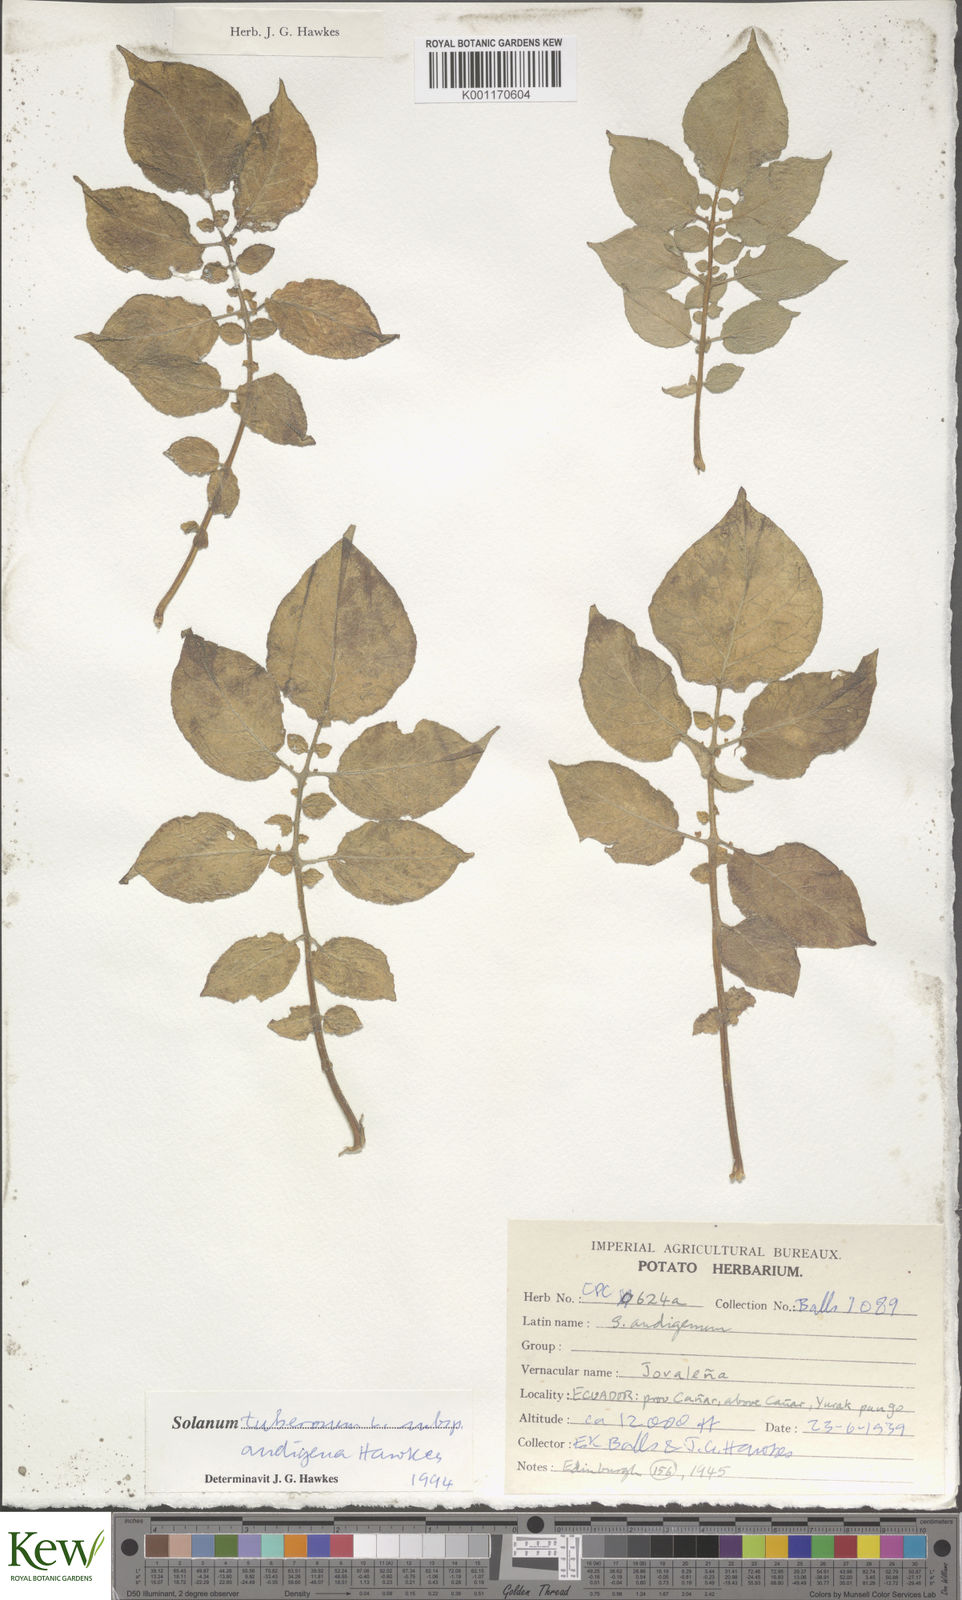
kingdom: Plantae
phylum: Tracheophyta
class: Magnoliopsida
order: Solanales
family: Solanaceae
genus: Solanum
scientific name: Solanum tuberosum
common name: Potato
